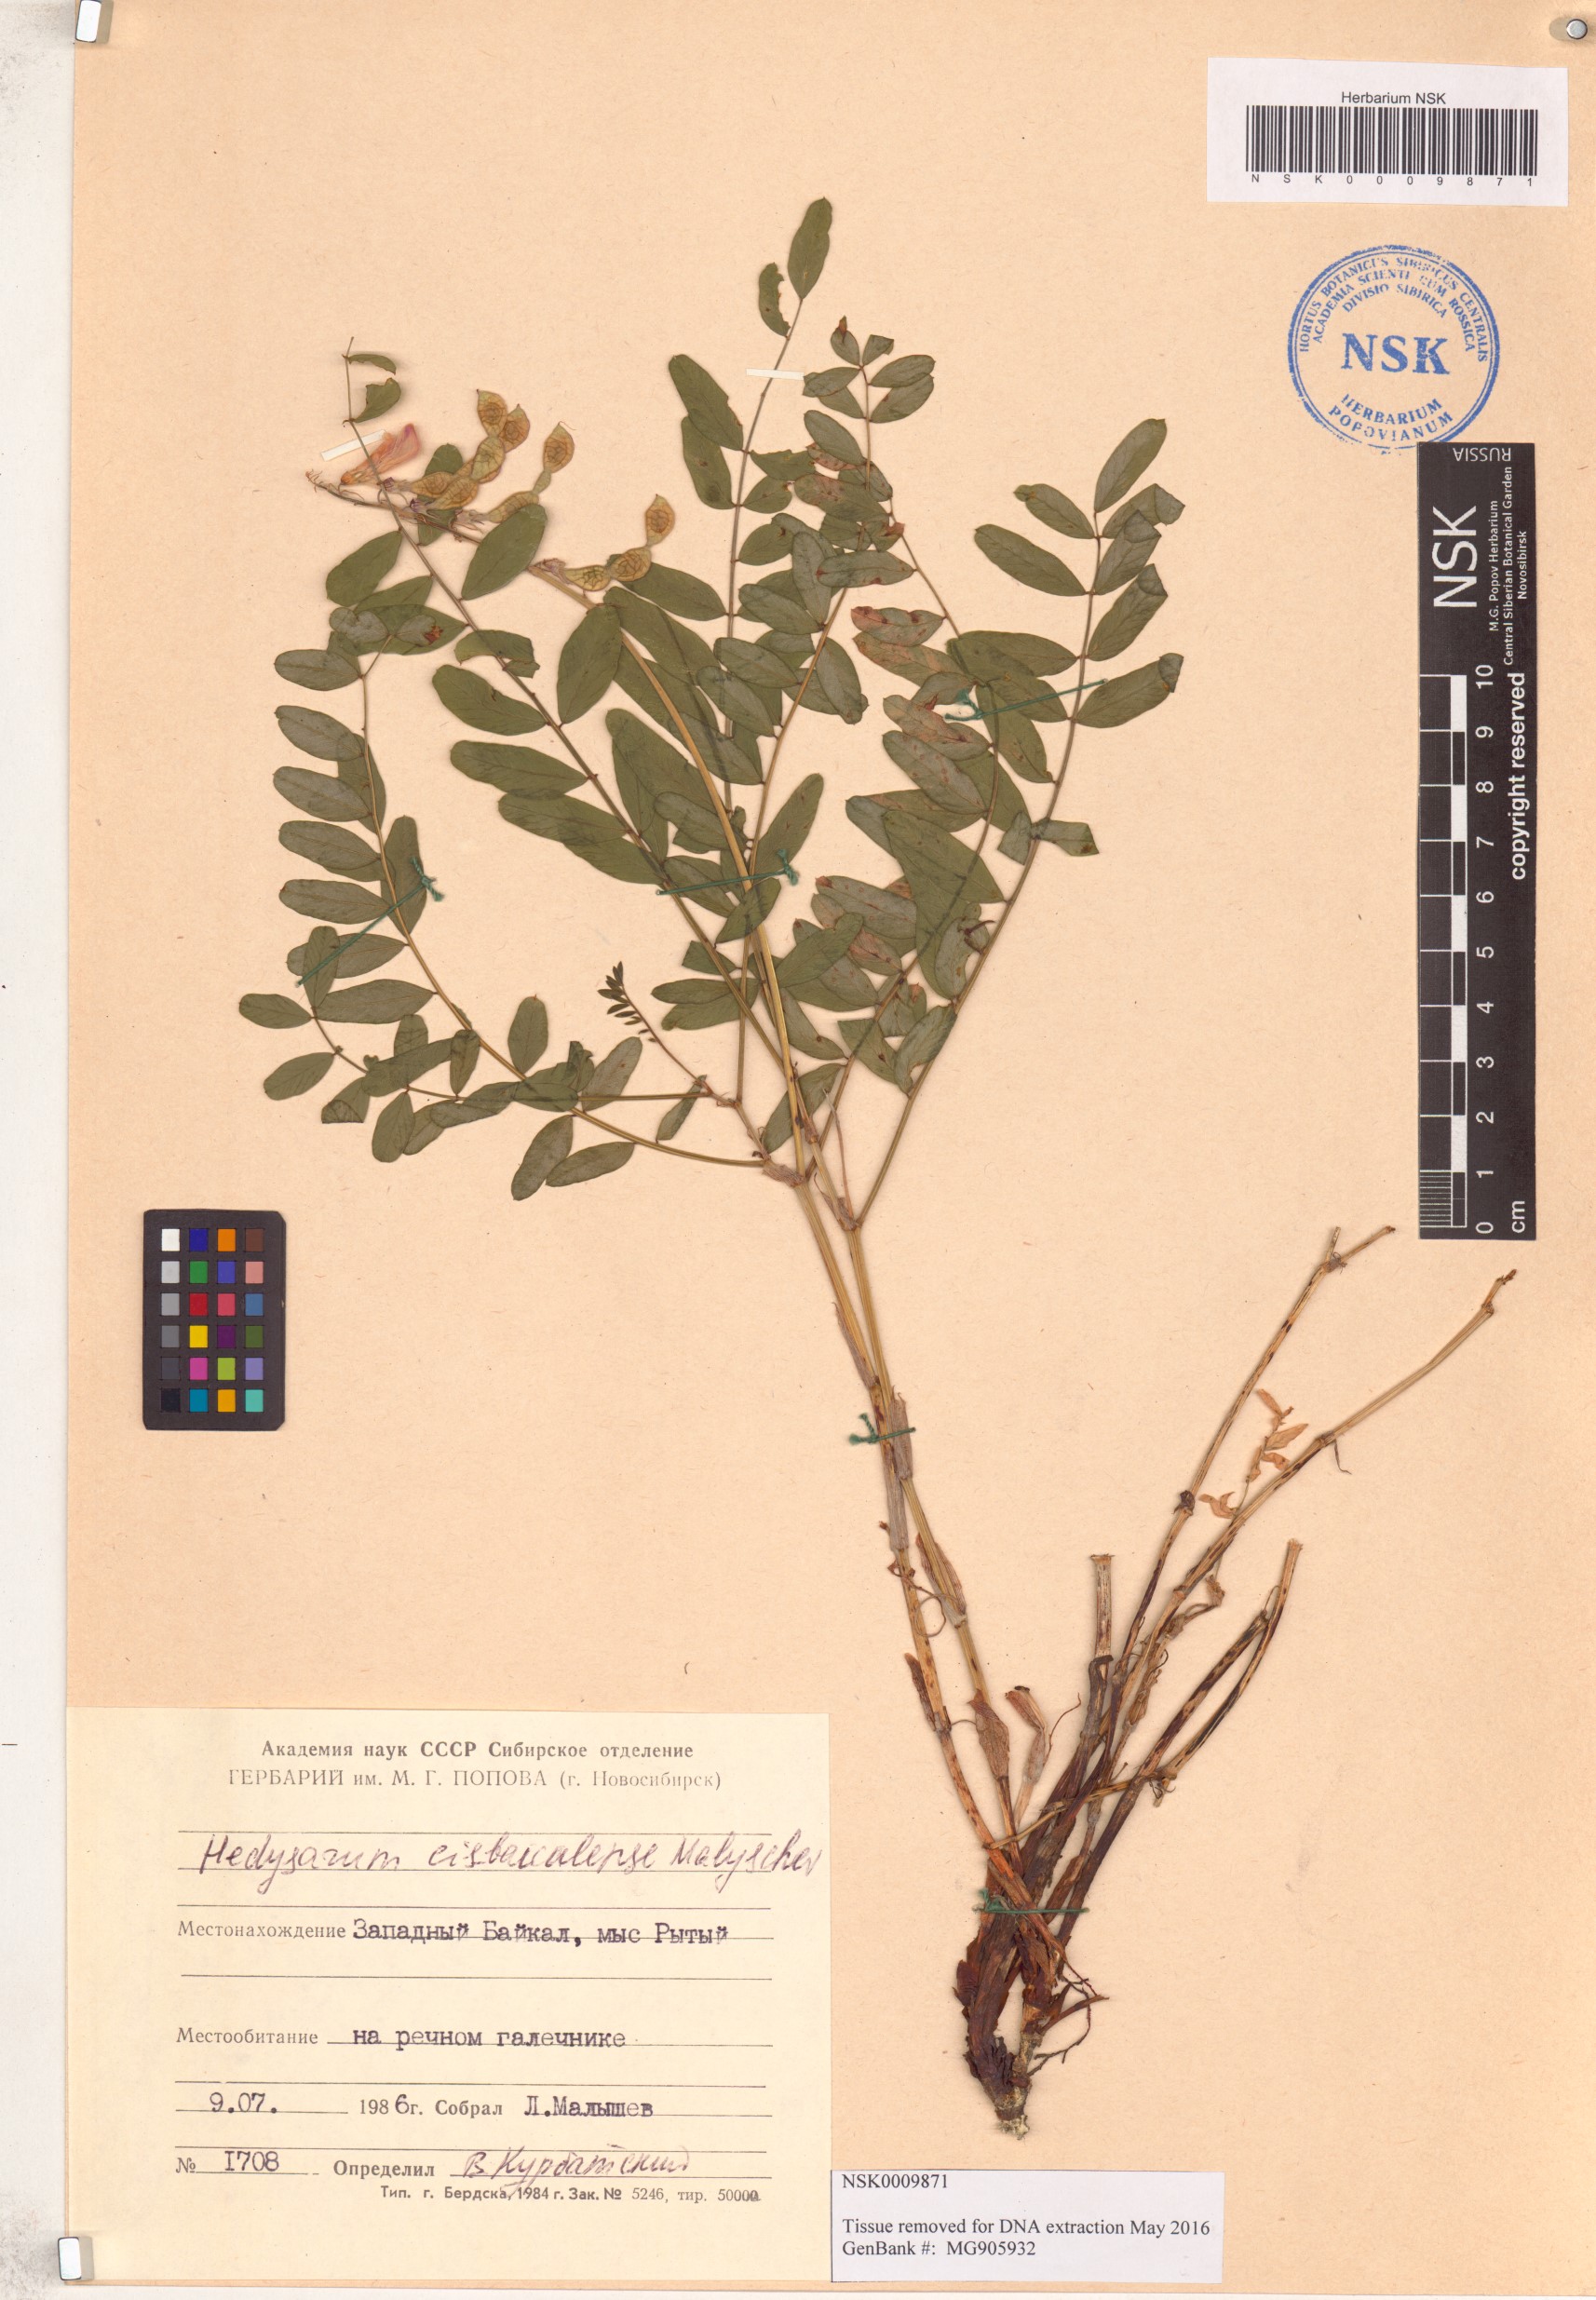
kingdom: Plantae
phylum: Tracheophyta
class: Magnoliopsida
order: Fabales
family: Fabaceae
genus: Hedysarum
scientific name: Hedysarum cisbaicalense
